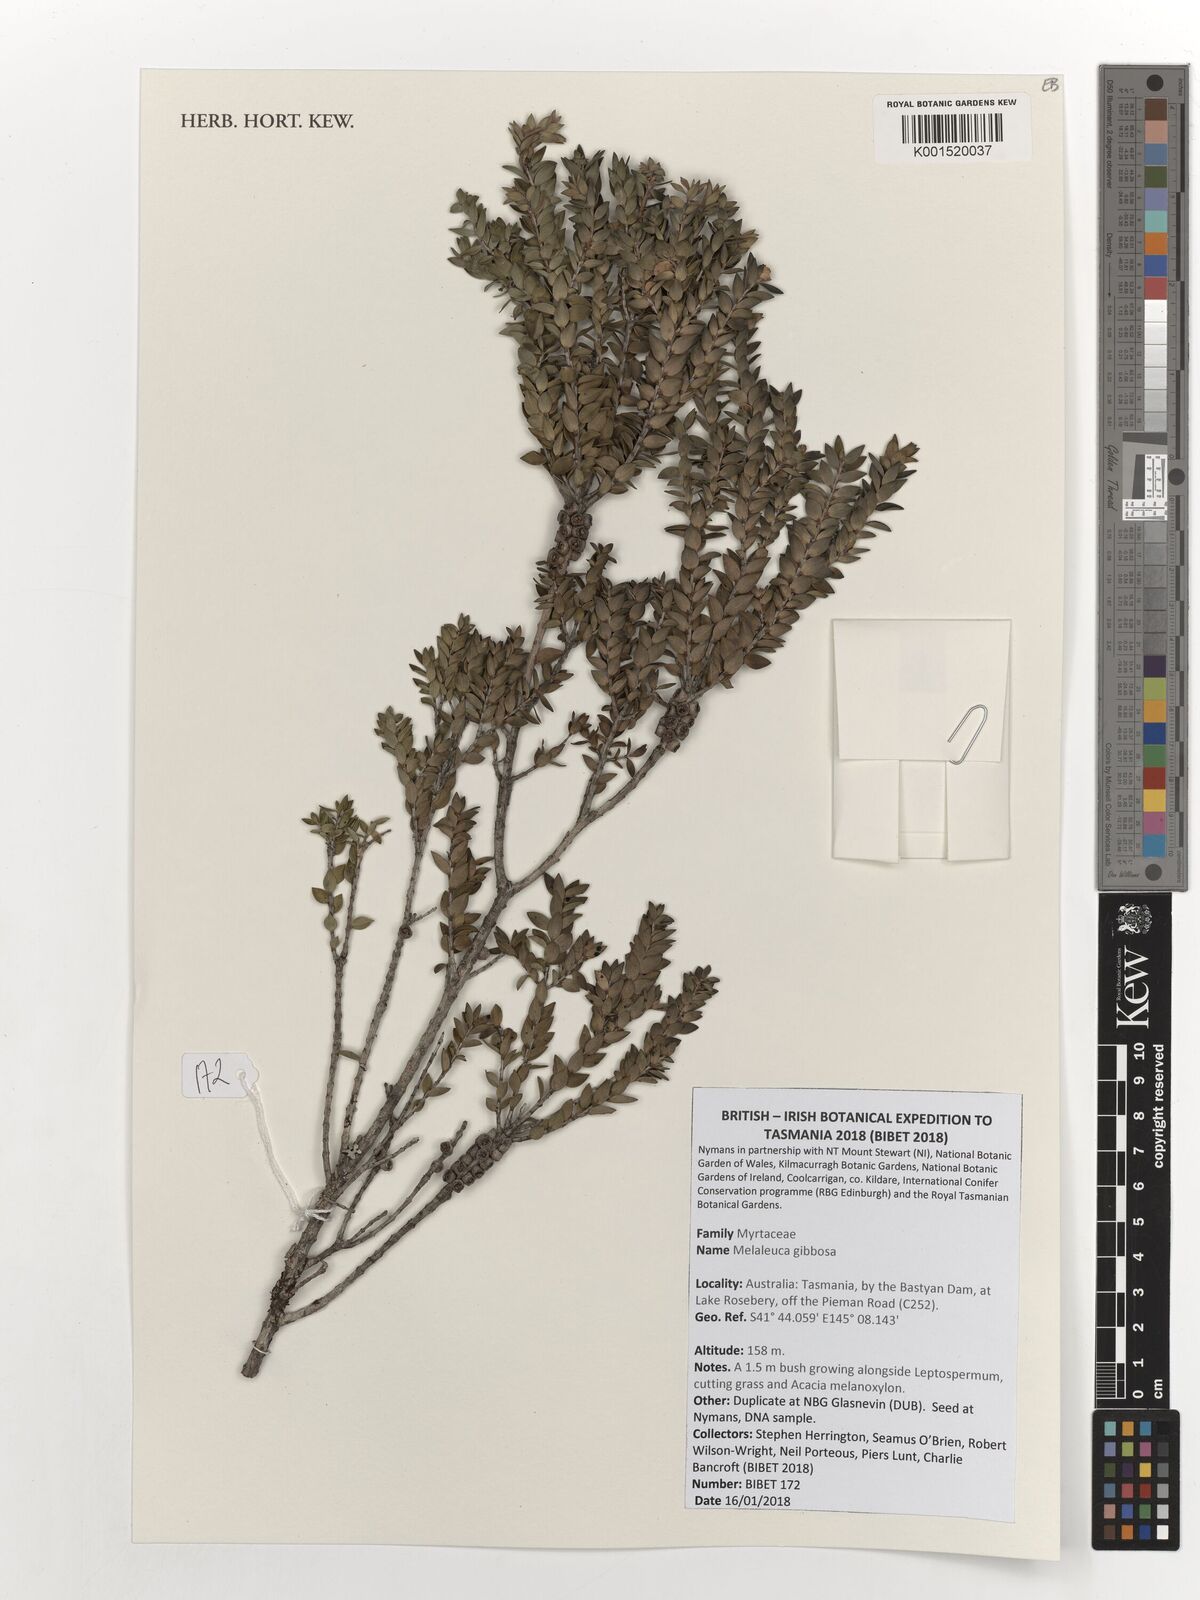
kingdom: Plantae
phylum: Tracheophyta
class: Magnoliopsida
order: Myrtales
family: Myrtaceae
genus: Melaleuca
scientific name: Melaleuca gibbosa
